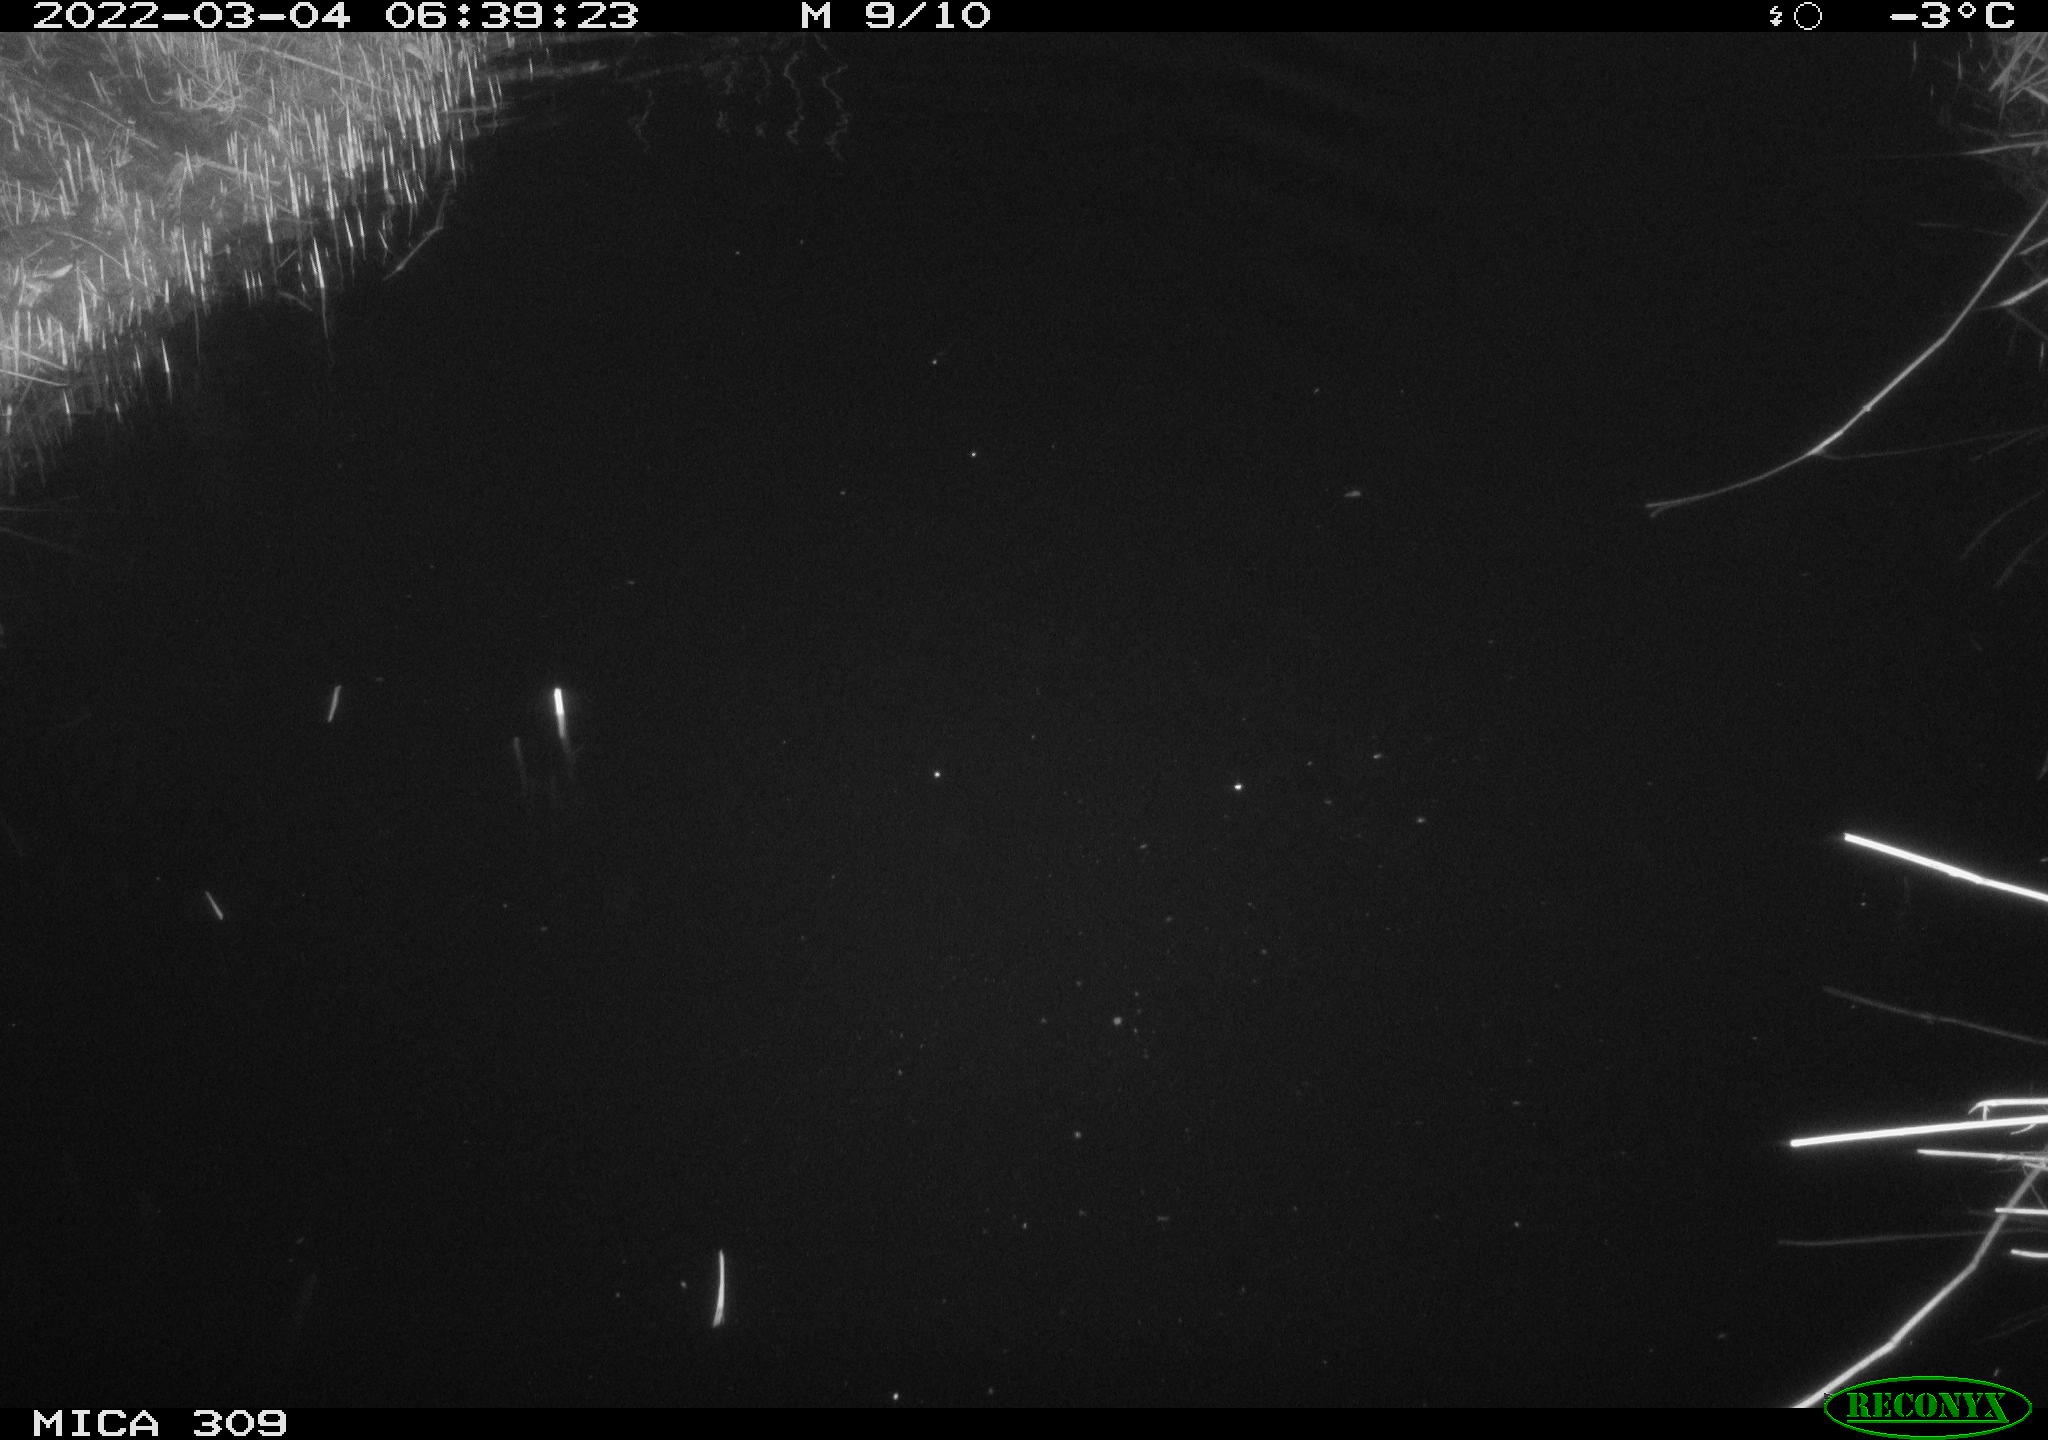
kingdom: Animalia
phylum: Chordata
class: Mammalia
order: Rodentia
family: Cricetidae
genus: Ondatra
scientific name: Ondatra zibethicus
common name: Muskrat
